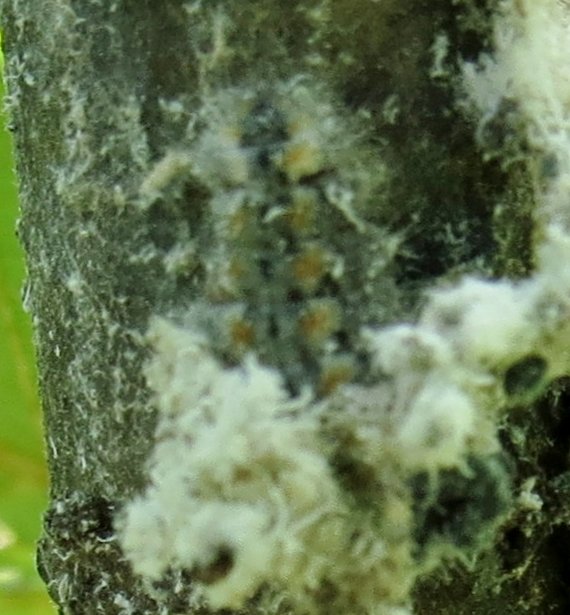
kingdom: Animalia
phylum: Arthropoda
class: Insecta
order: Lepidoptera
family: Lycaenidae
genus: Feniseca
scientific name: Feniseca tarquinius
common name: Harvester
